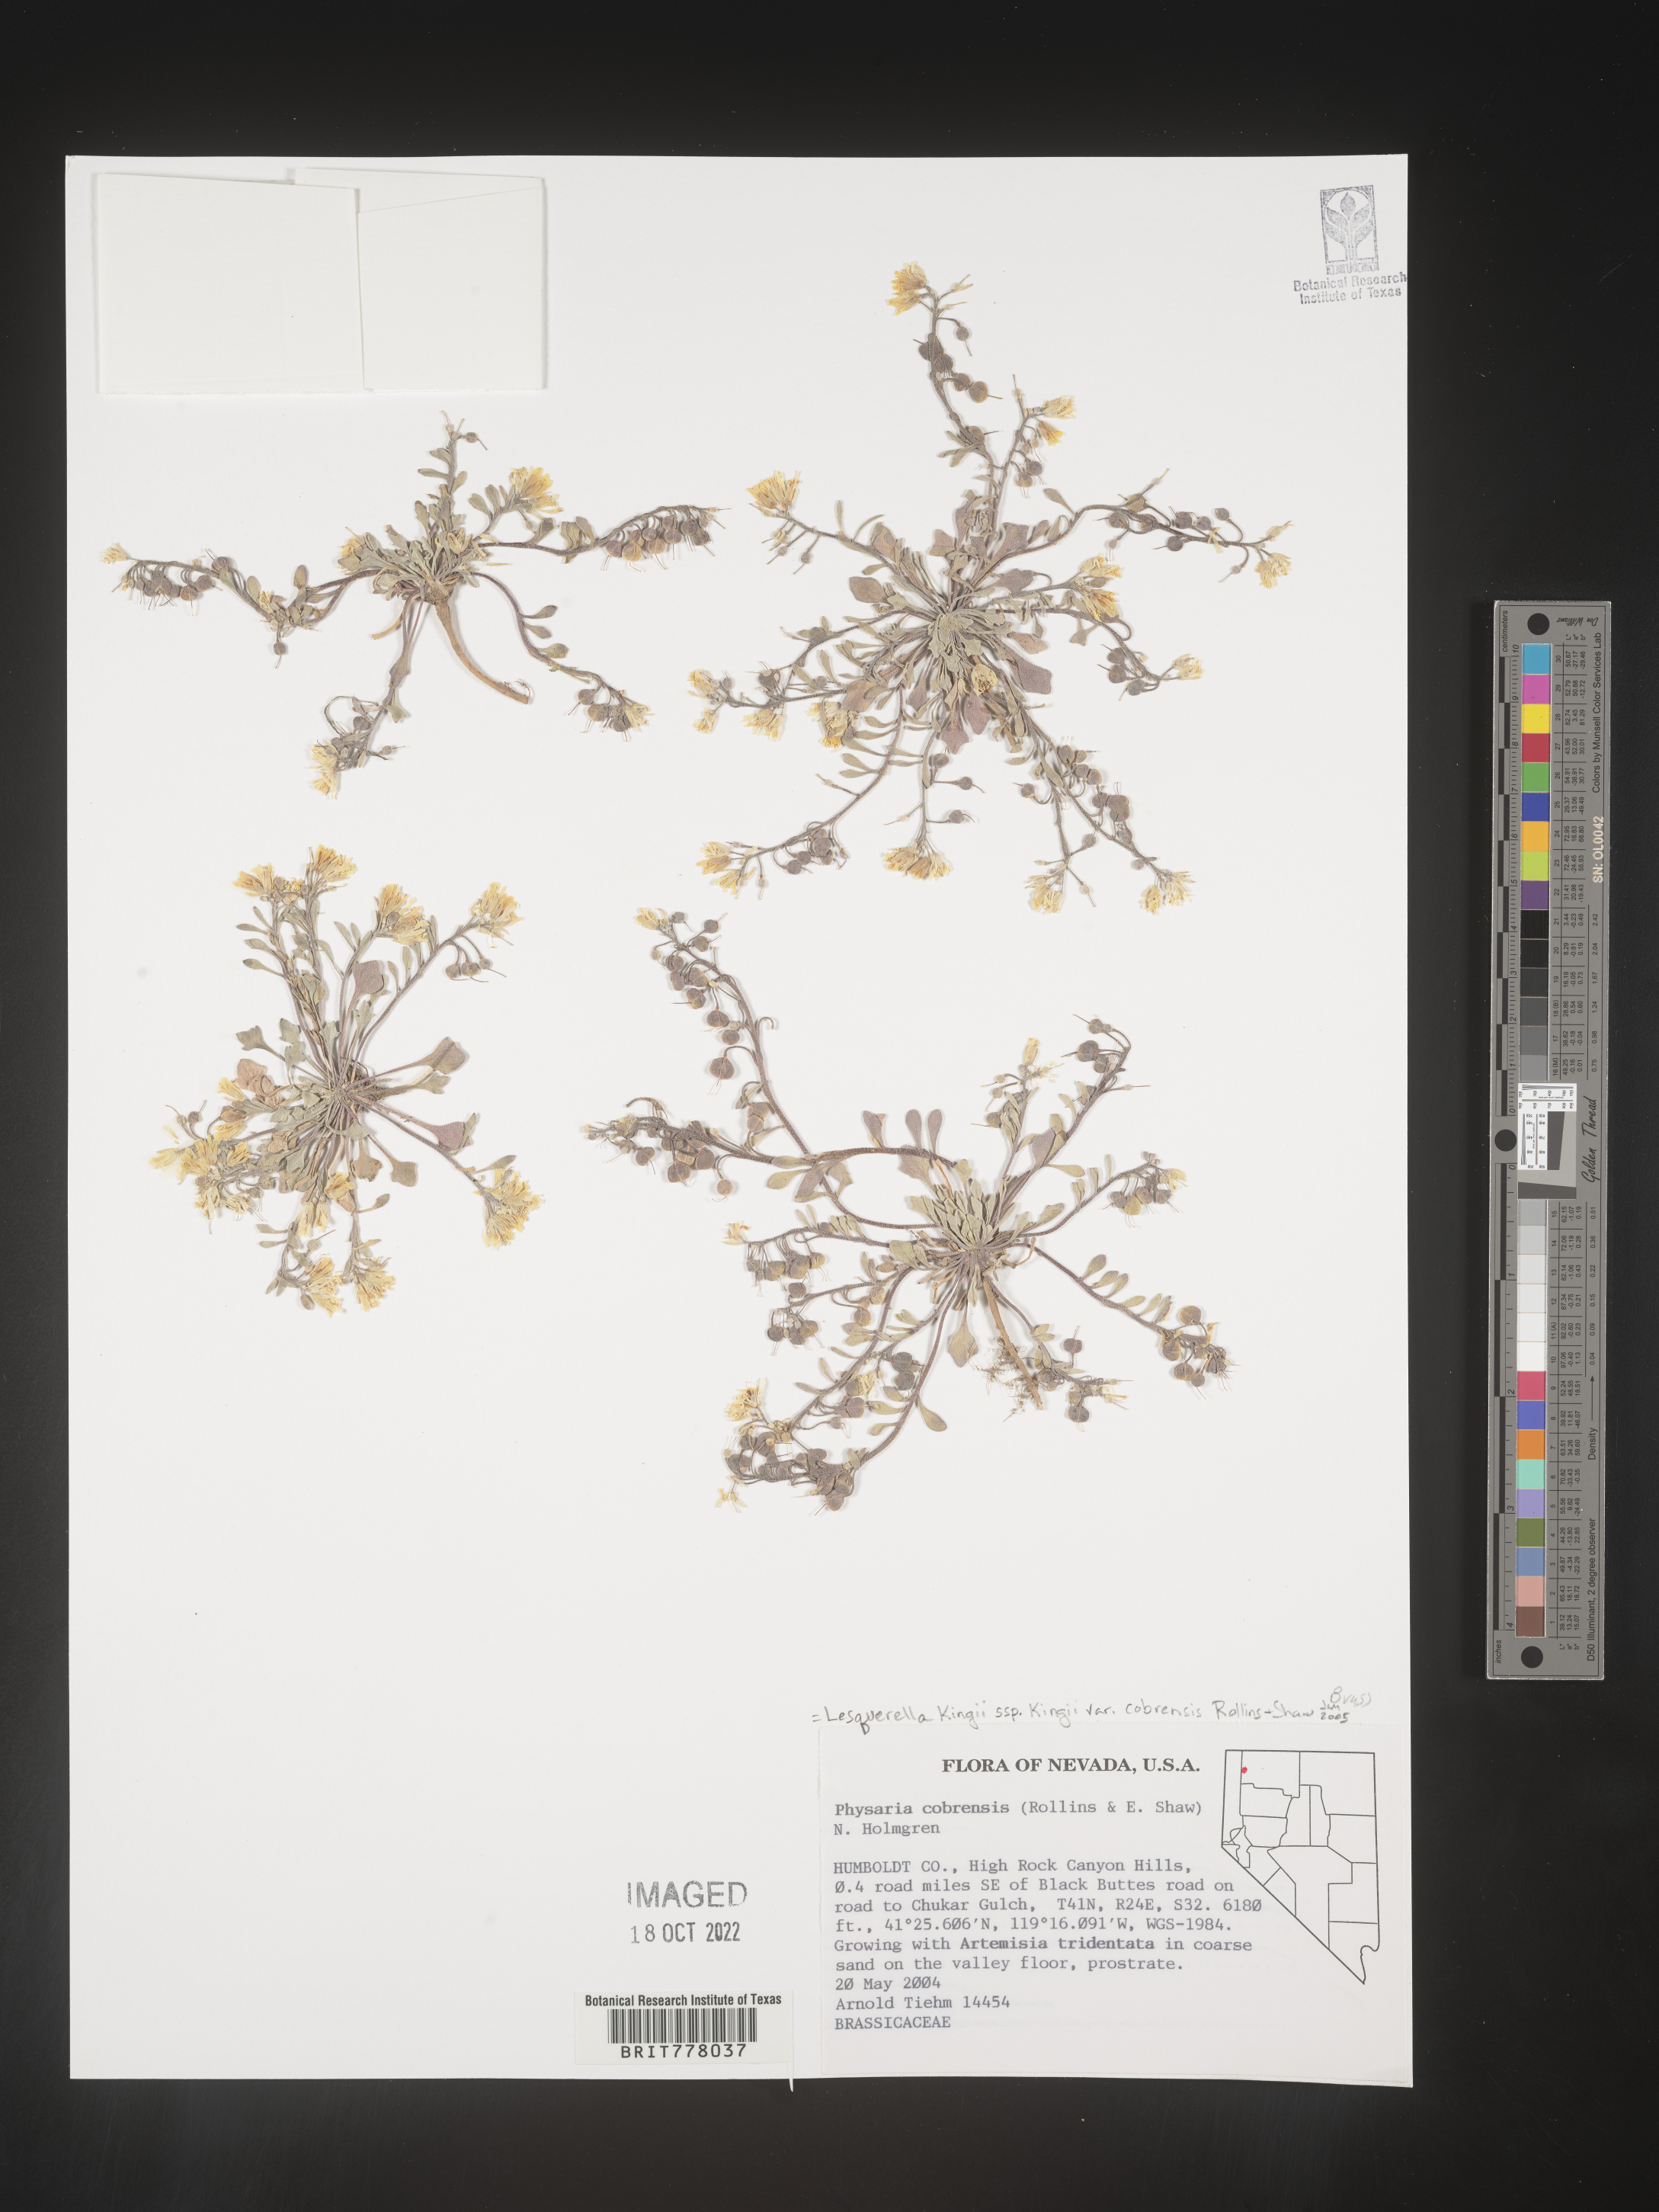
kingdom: Chromista
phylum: Cercozoa
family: Psammonobiotidae
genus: Lesquerella
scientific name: Lesquerella
